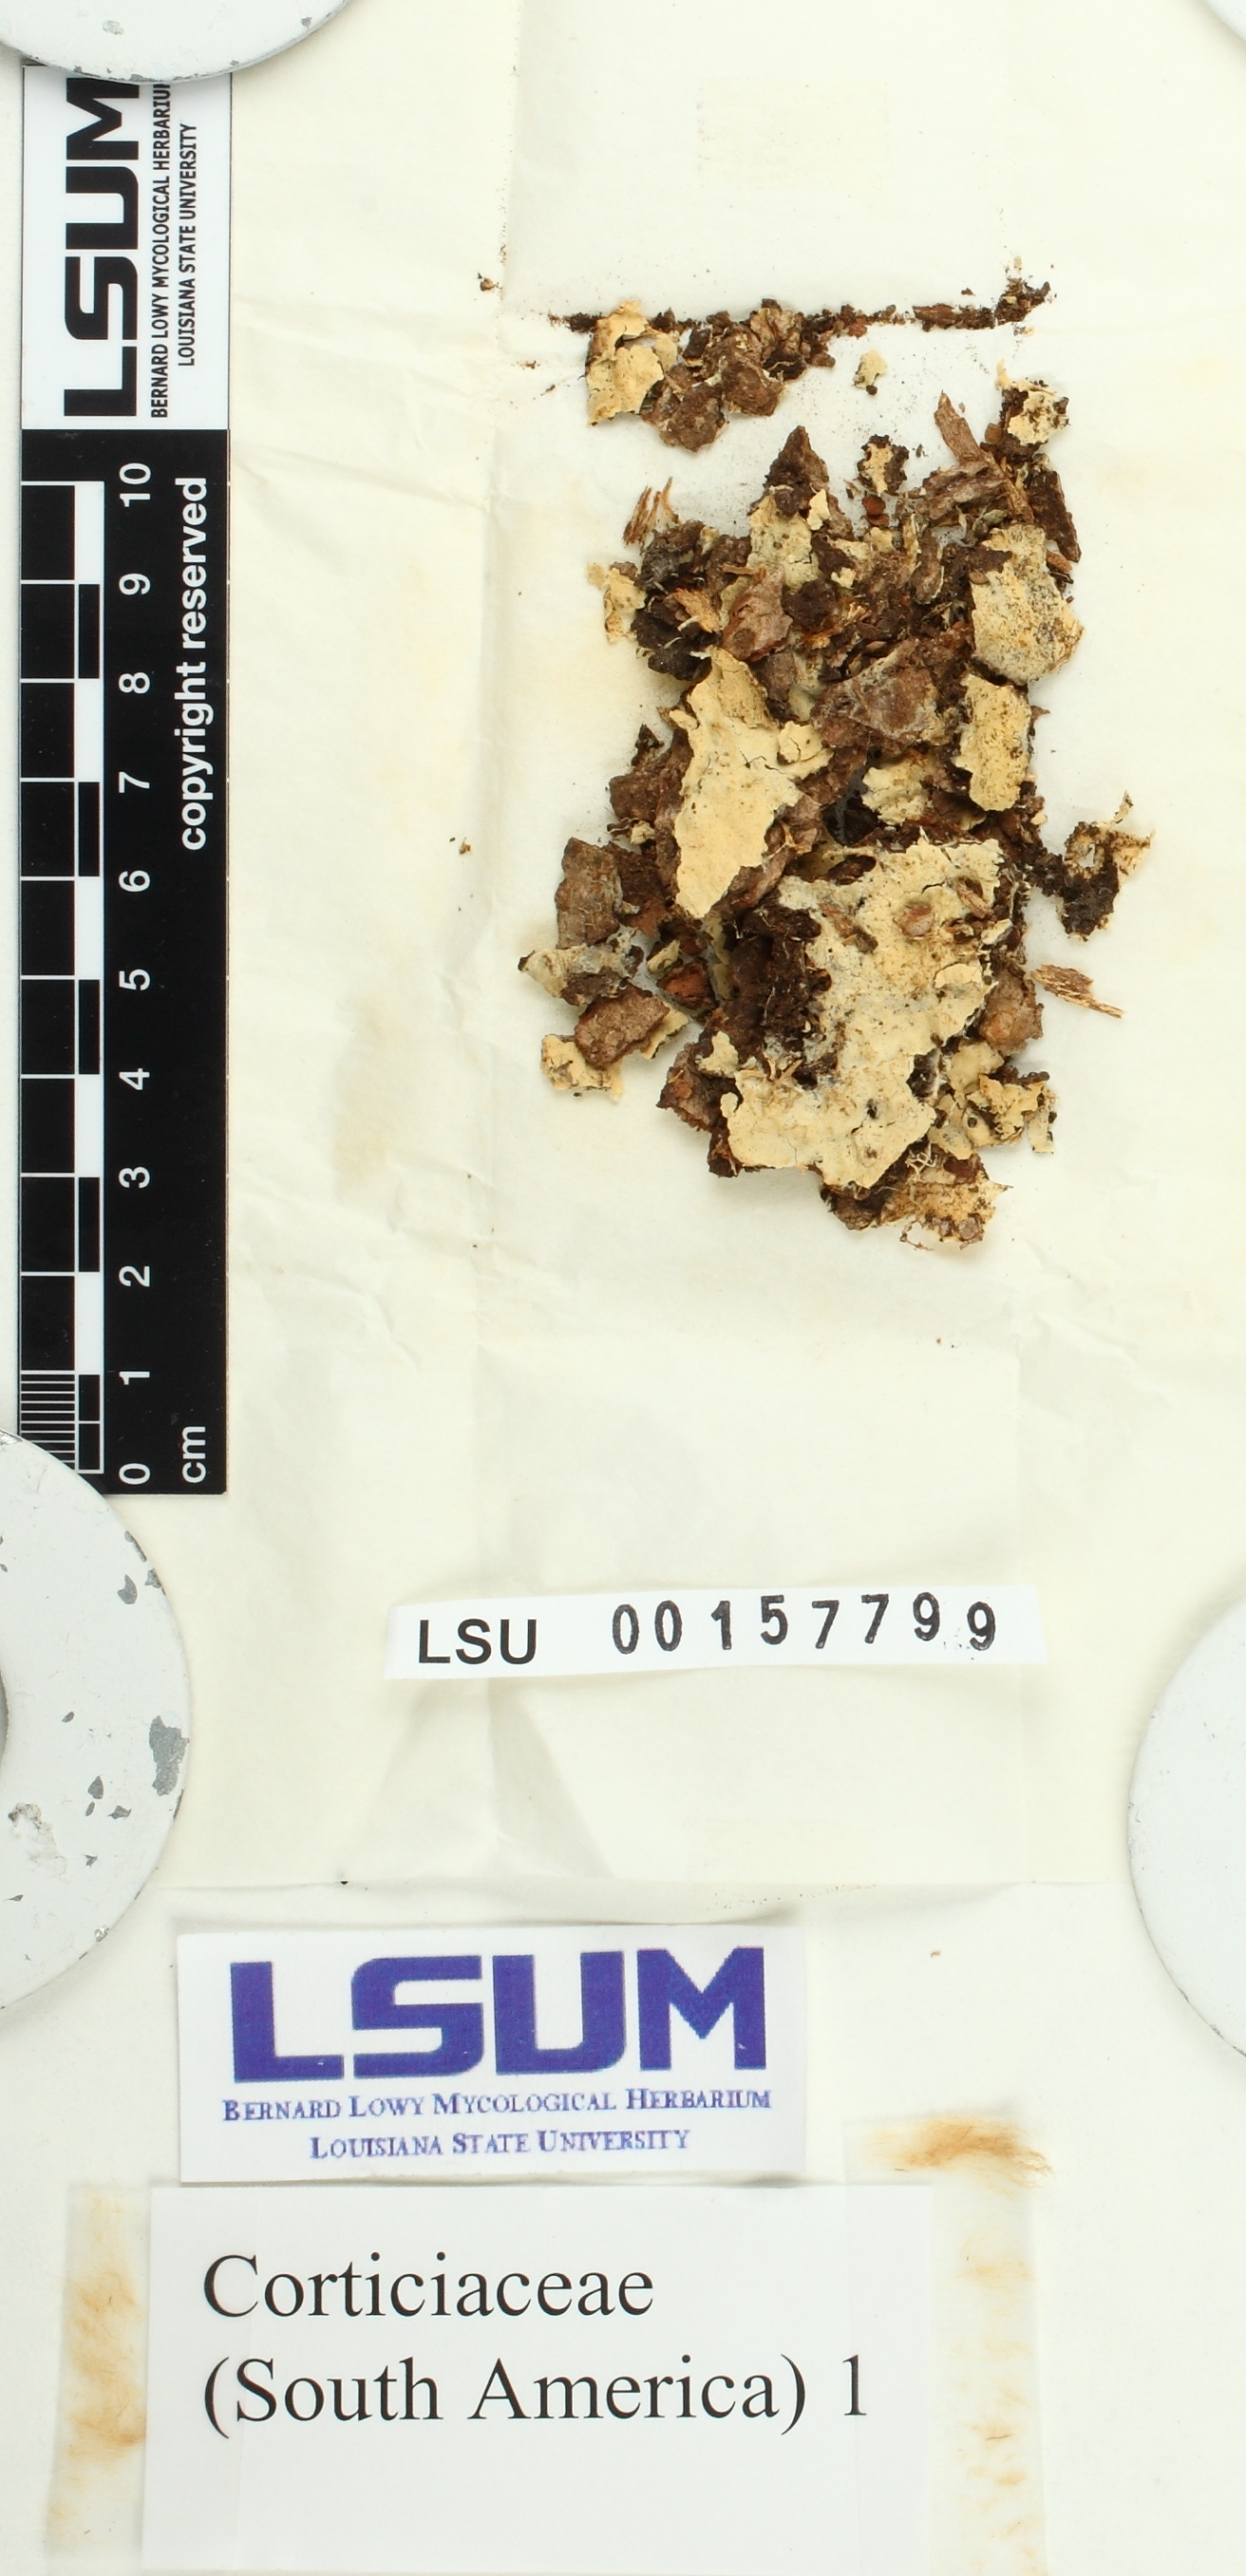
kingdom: Fungi
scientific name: Fungi
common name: Fungi
